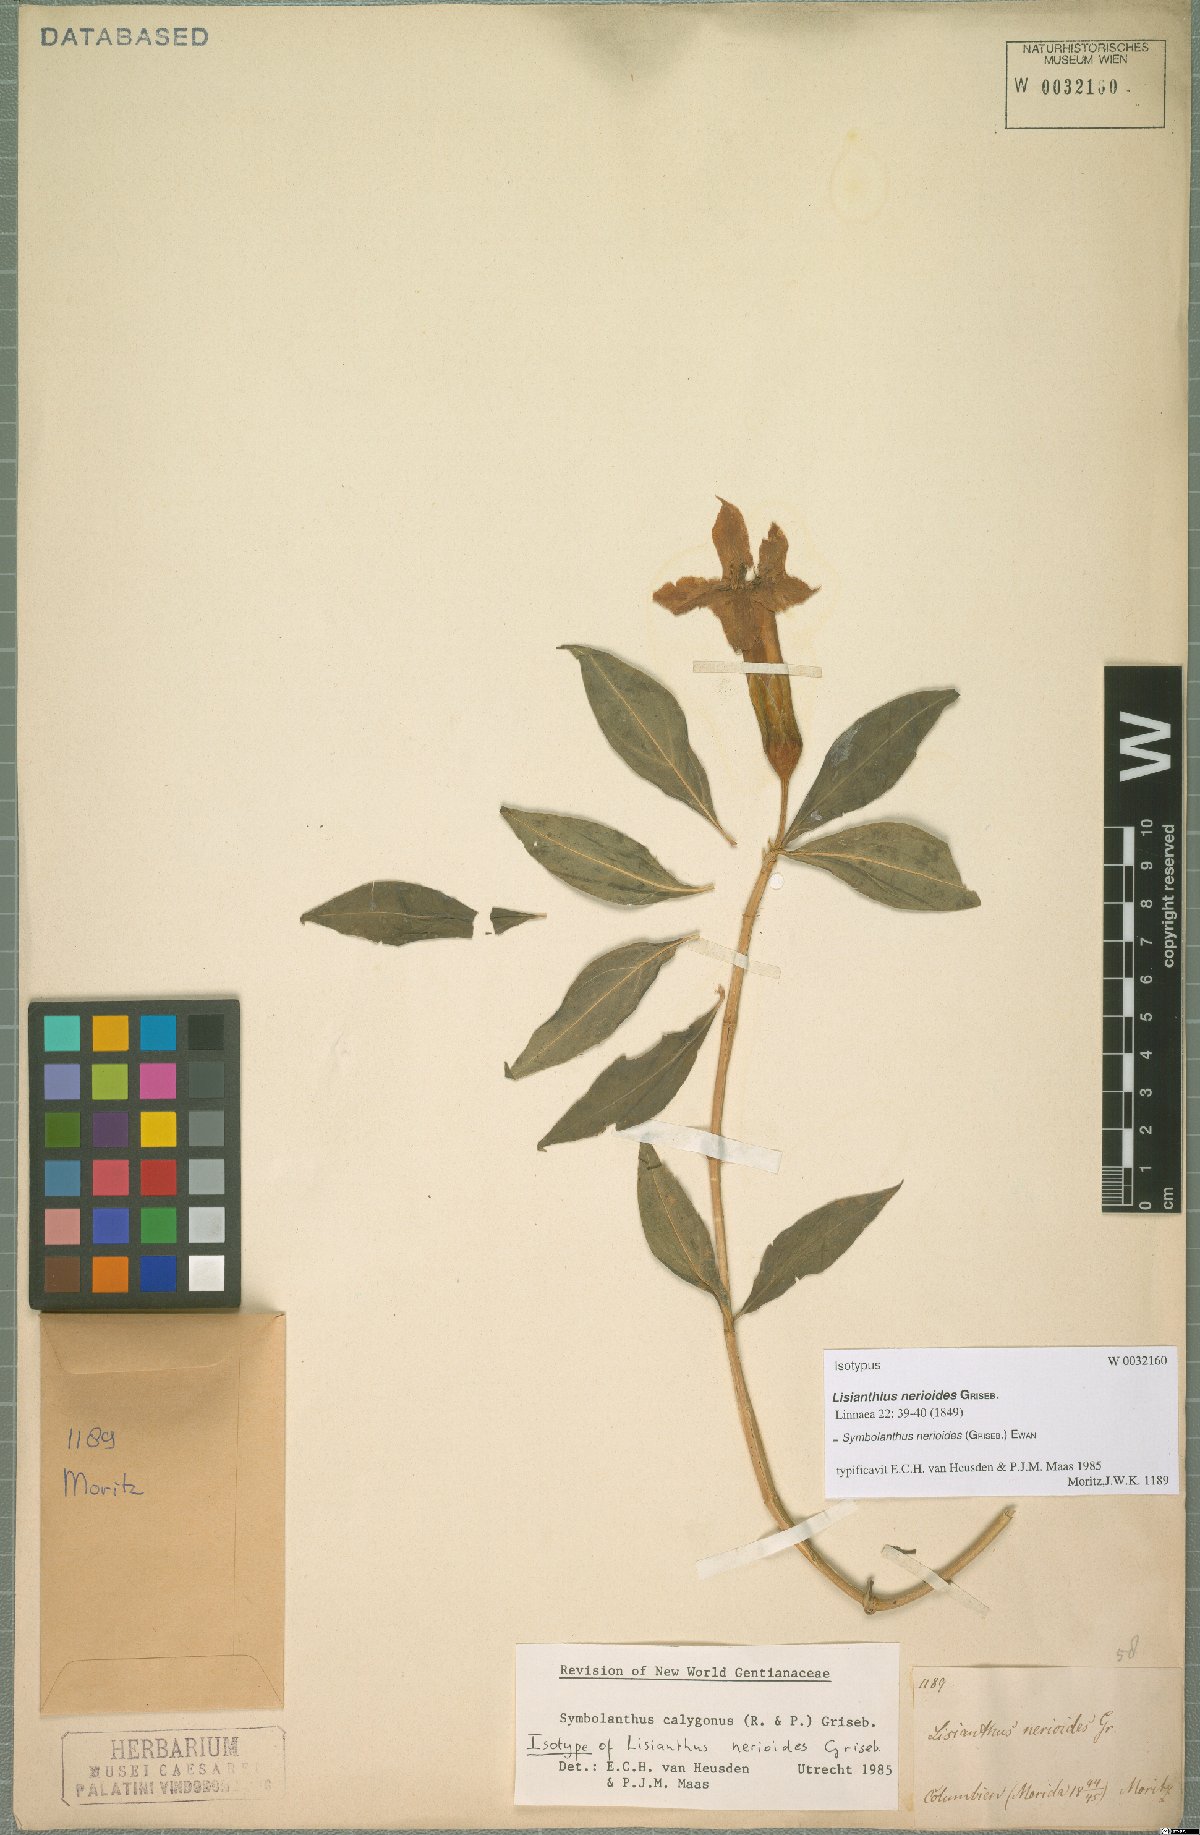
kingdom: Plantae
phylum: Tracheophyta
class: Magnoliopsida
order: Gentianales
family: Gentianaceae
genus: Symbolanthus
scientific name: Symbolanthus anomalus
